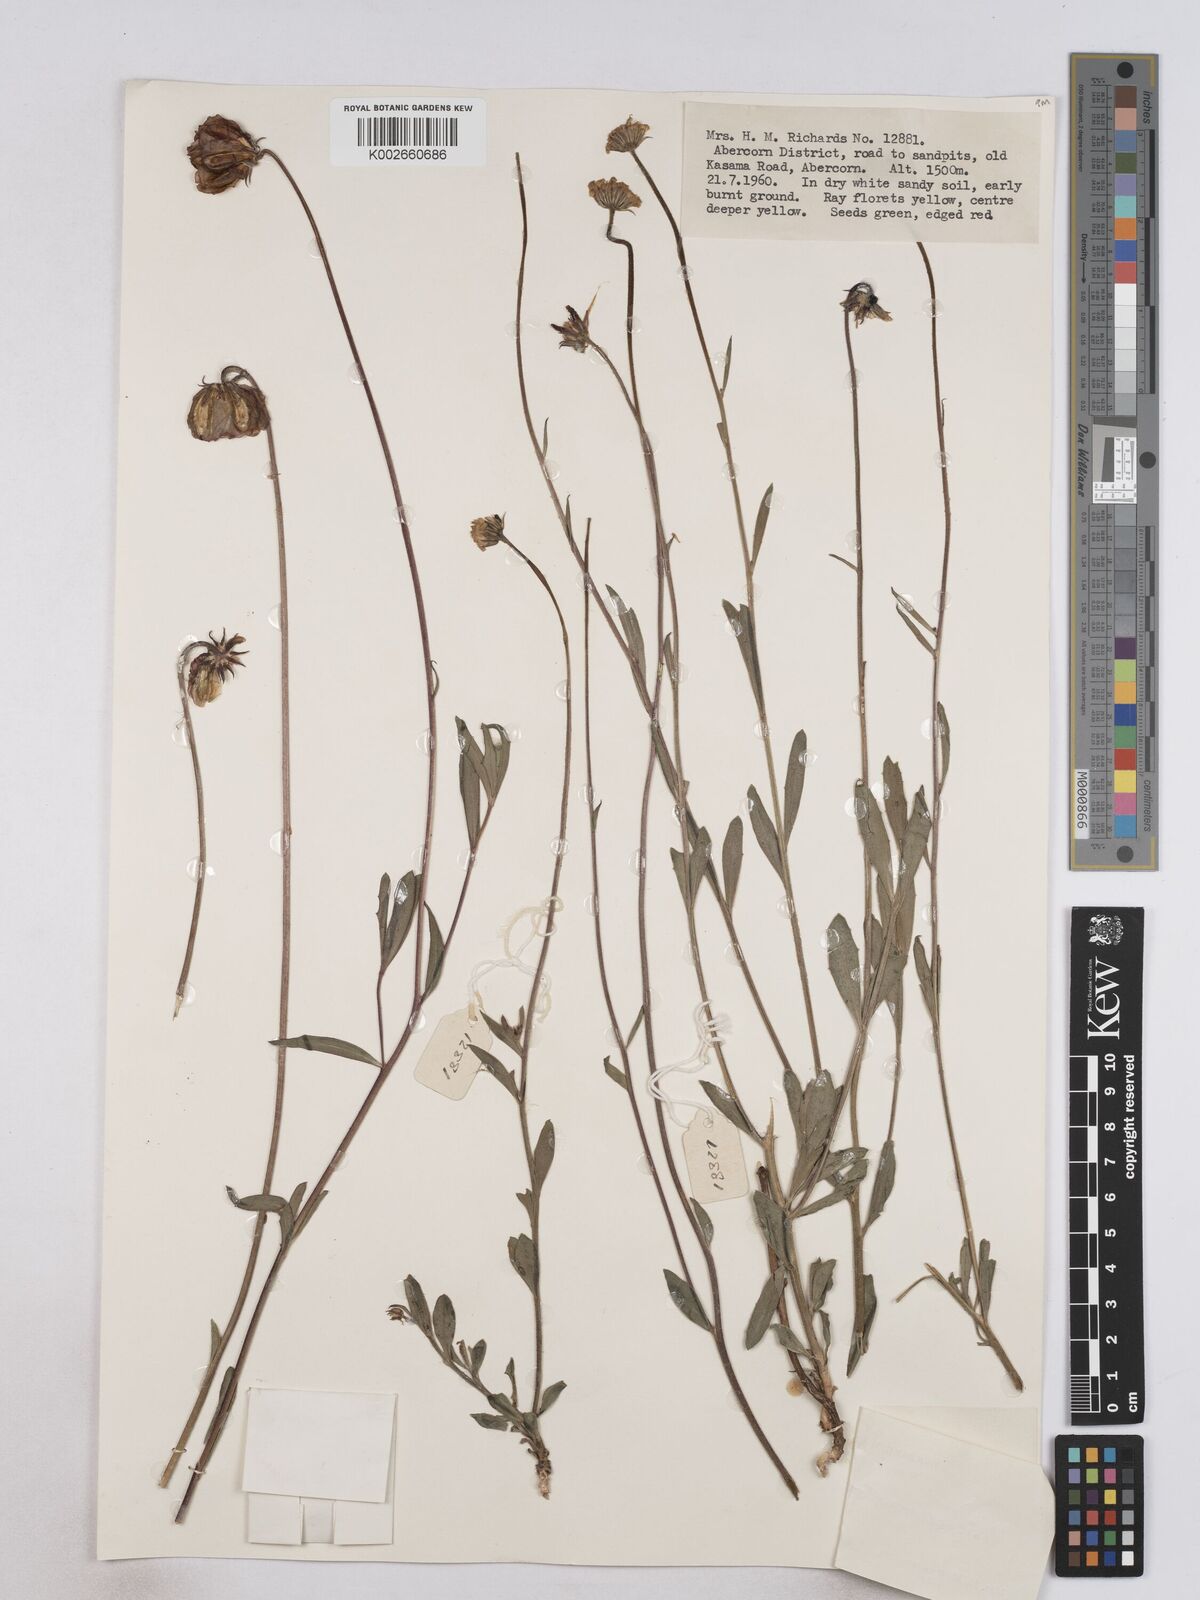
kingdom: Plantae
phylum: Tracheophyta
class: Magnoliopsida
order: Asterales
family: Asteraceae
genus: Osteospermum
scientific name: Osteospermum monocephalum
